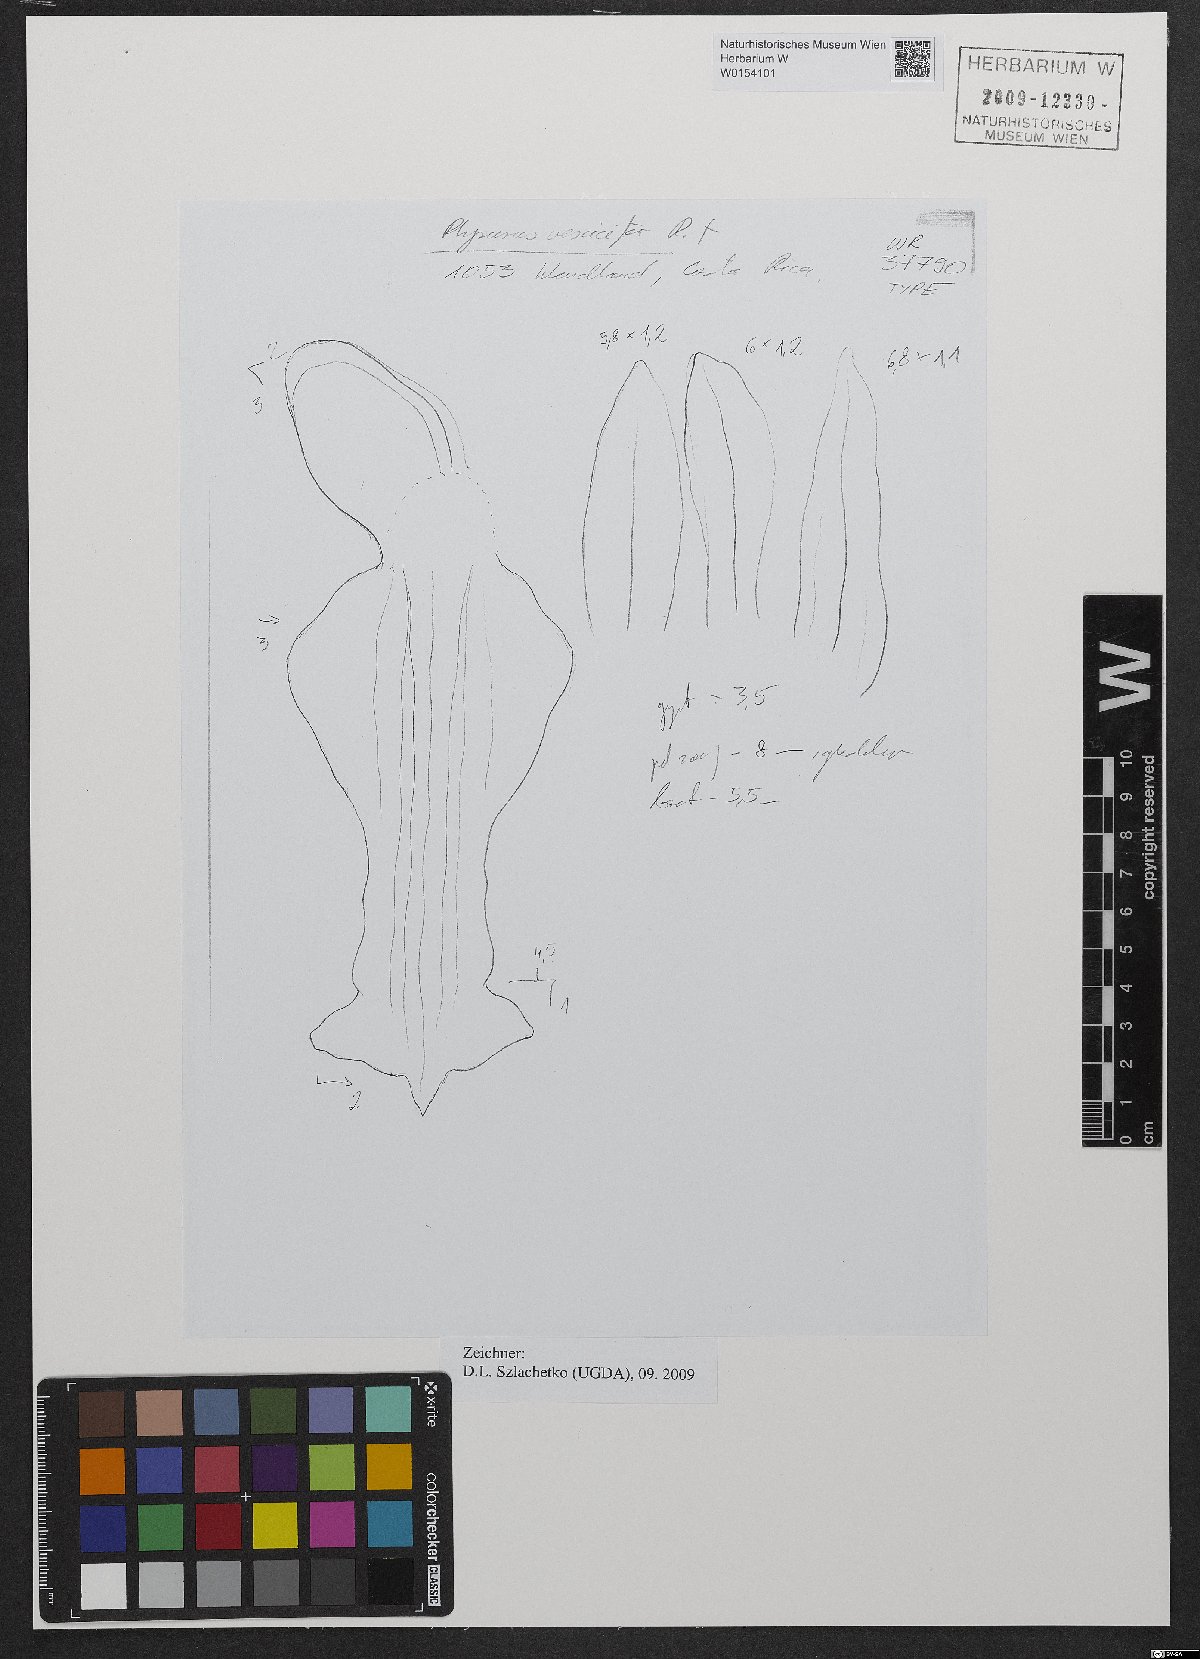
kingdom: Plantae
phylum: Tracheophyta
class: Liliopsida
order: Asparagales
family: Orchidaceae
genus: Microchilus
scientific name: Microchilus vesicifer
